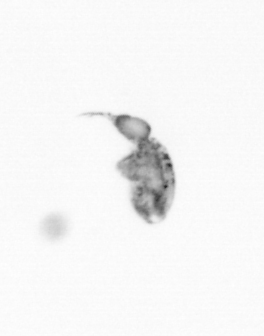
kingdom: Animalia
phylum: Arthropoda
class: Copepoda
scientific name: Copepoda
